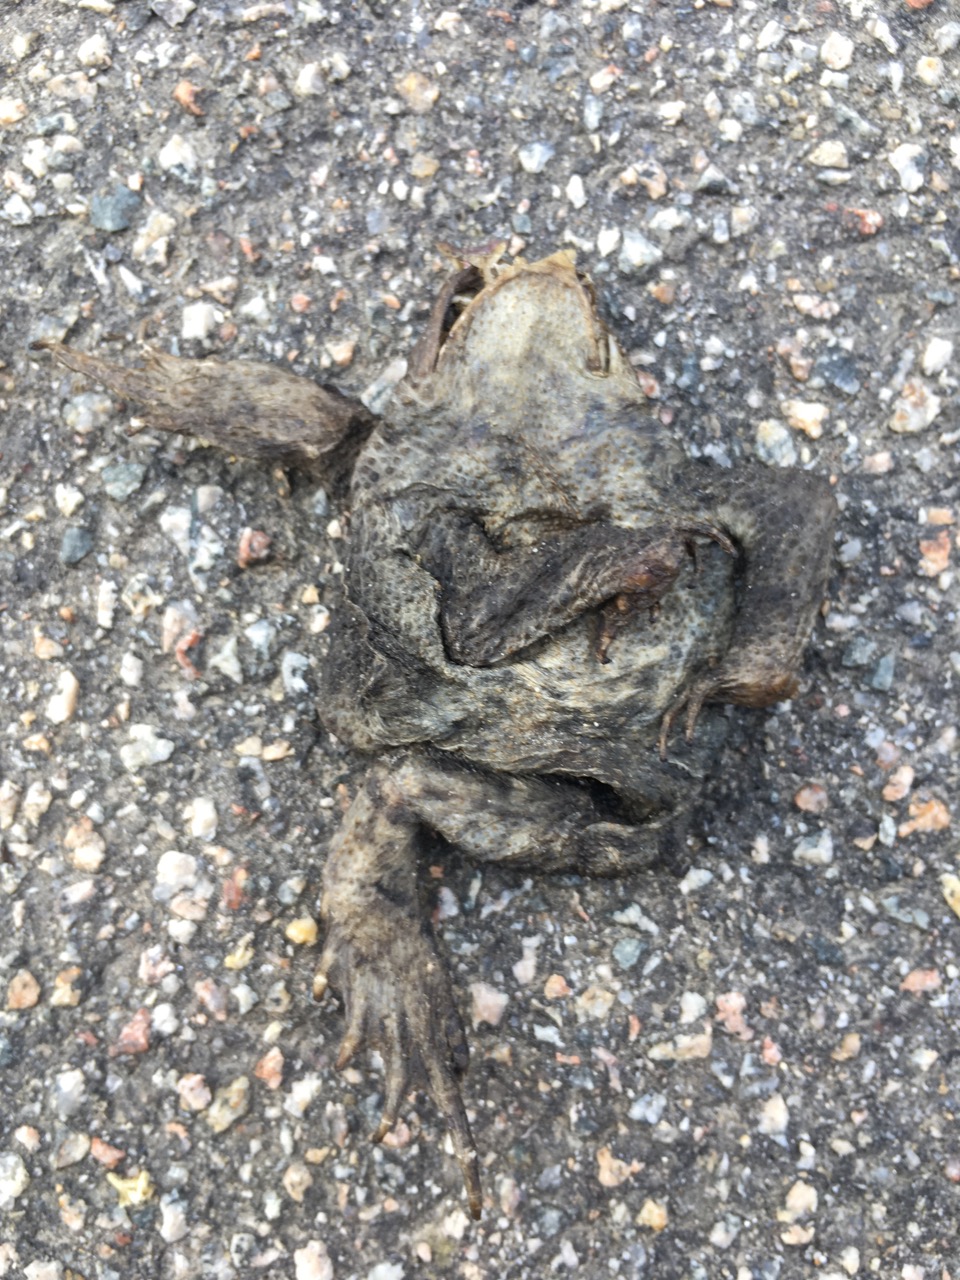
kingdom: Animalia
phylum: Chordata
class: Amphibia
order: Anura
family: Bufonidae
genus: Bufo
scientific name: Bufo bufo
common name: Common toad
